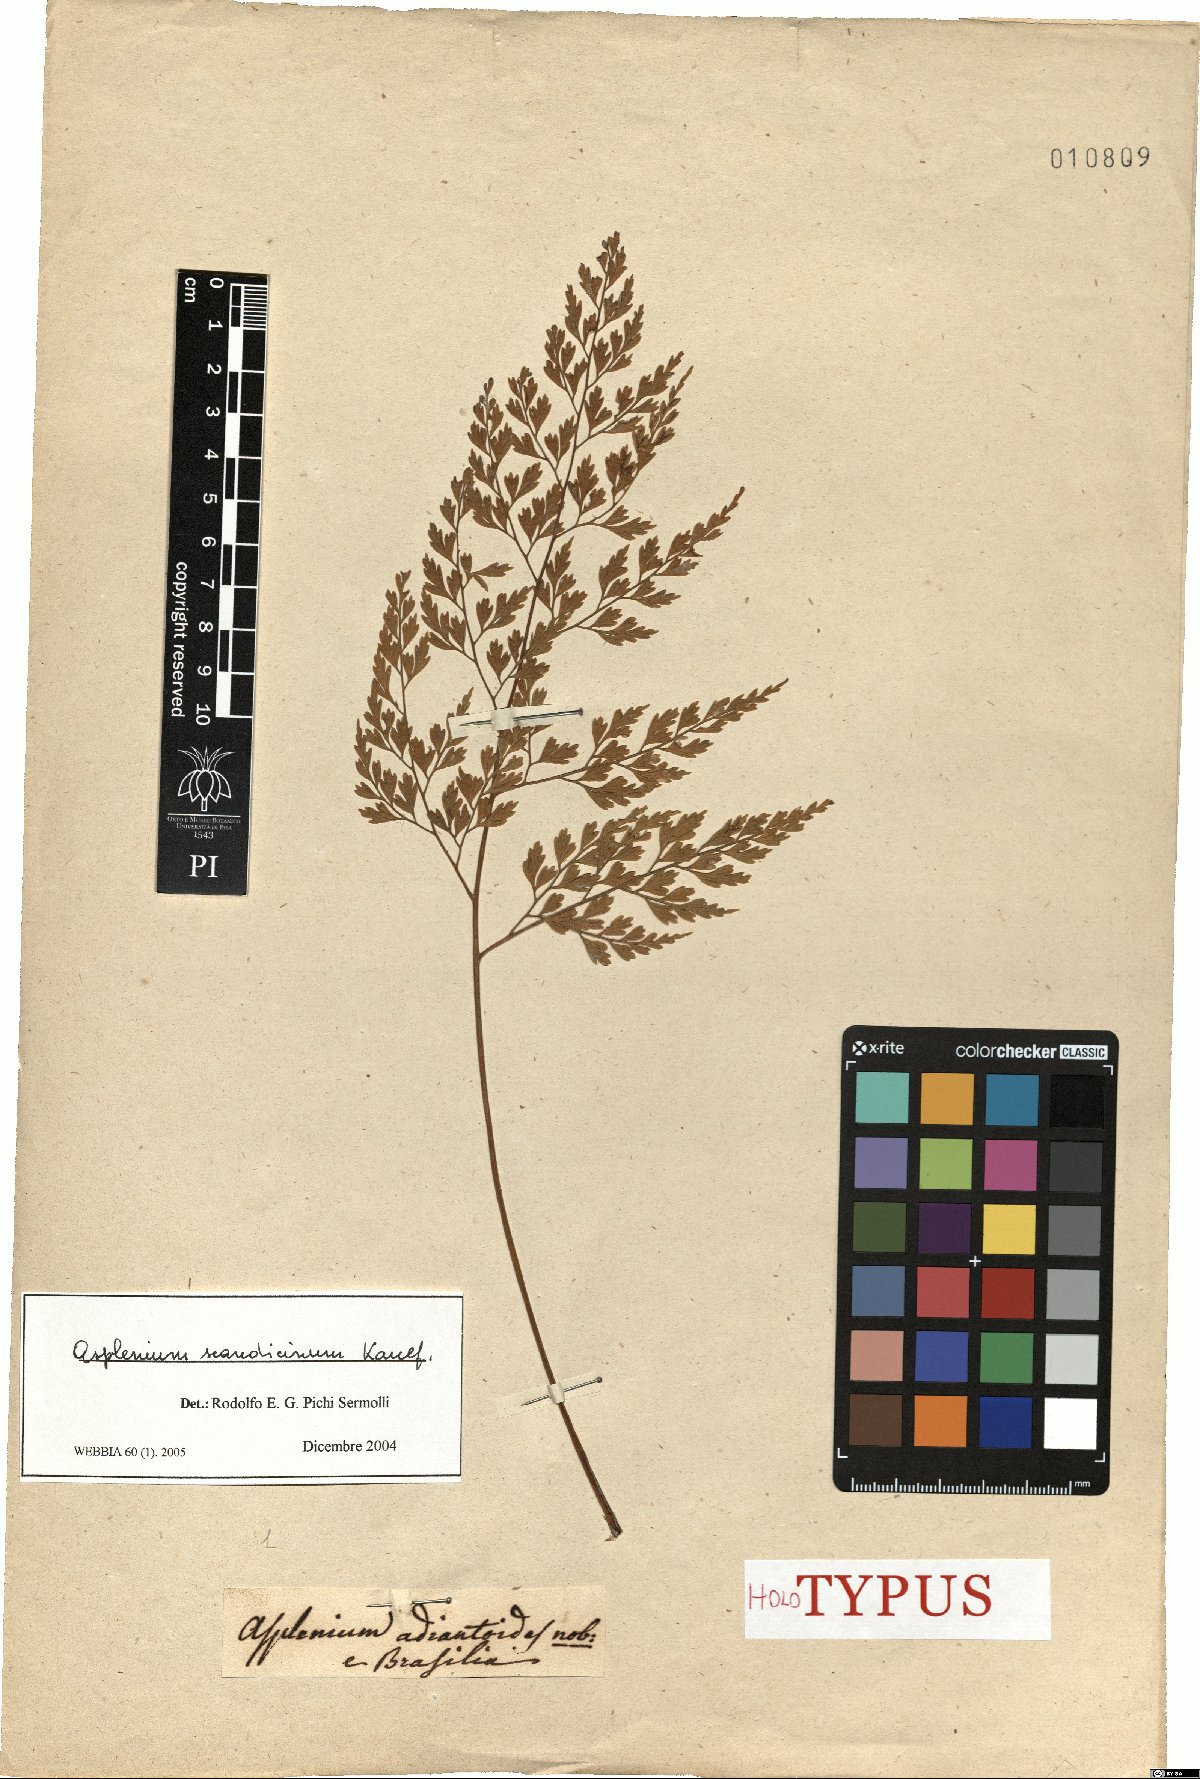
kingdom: Plantae
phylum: Tracheophyta
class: Polypodiopsida
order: Polypodiales
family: Aspleniaceae
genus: Asplenium
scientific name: Asplenium scandicinum
